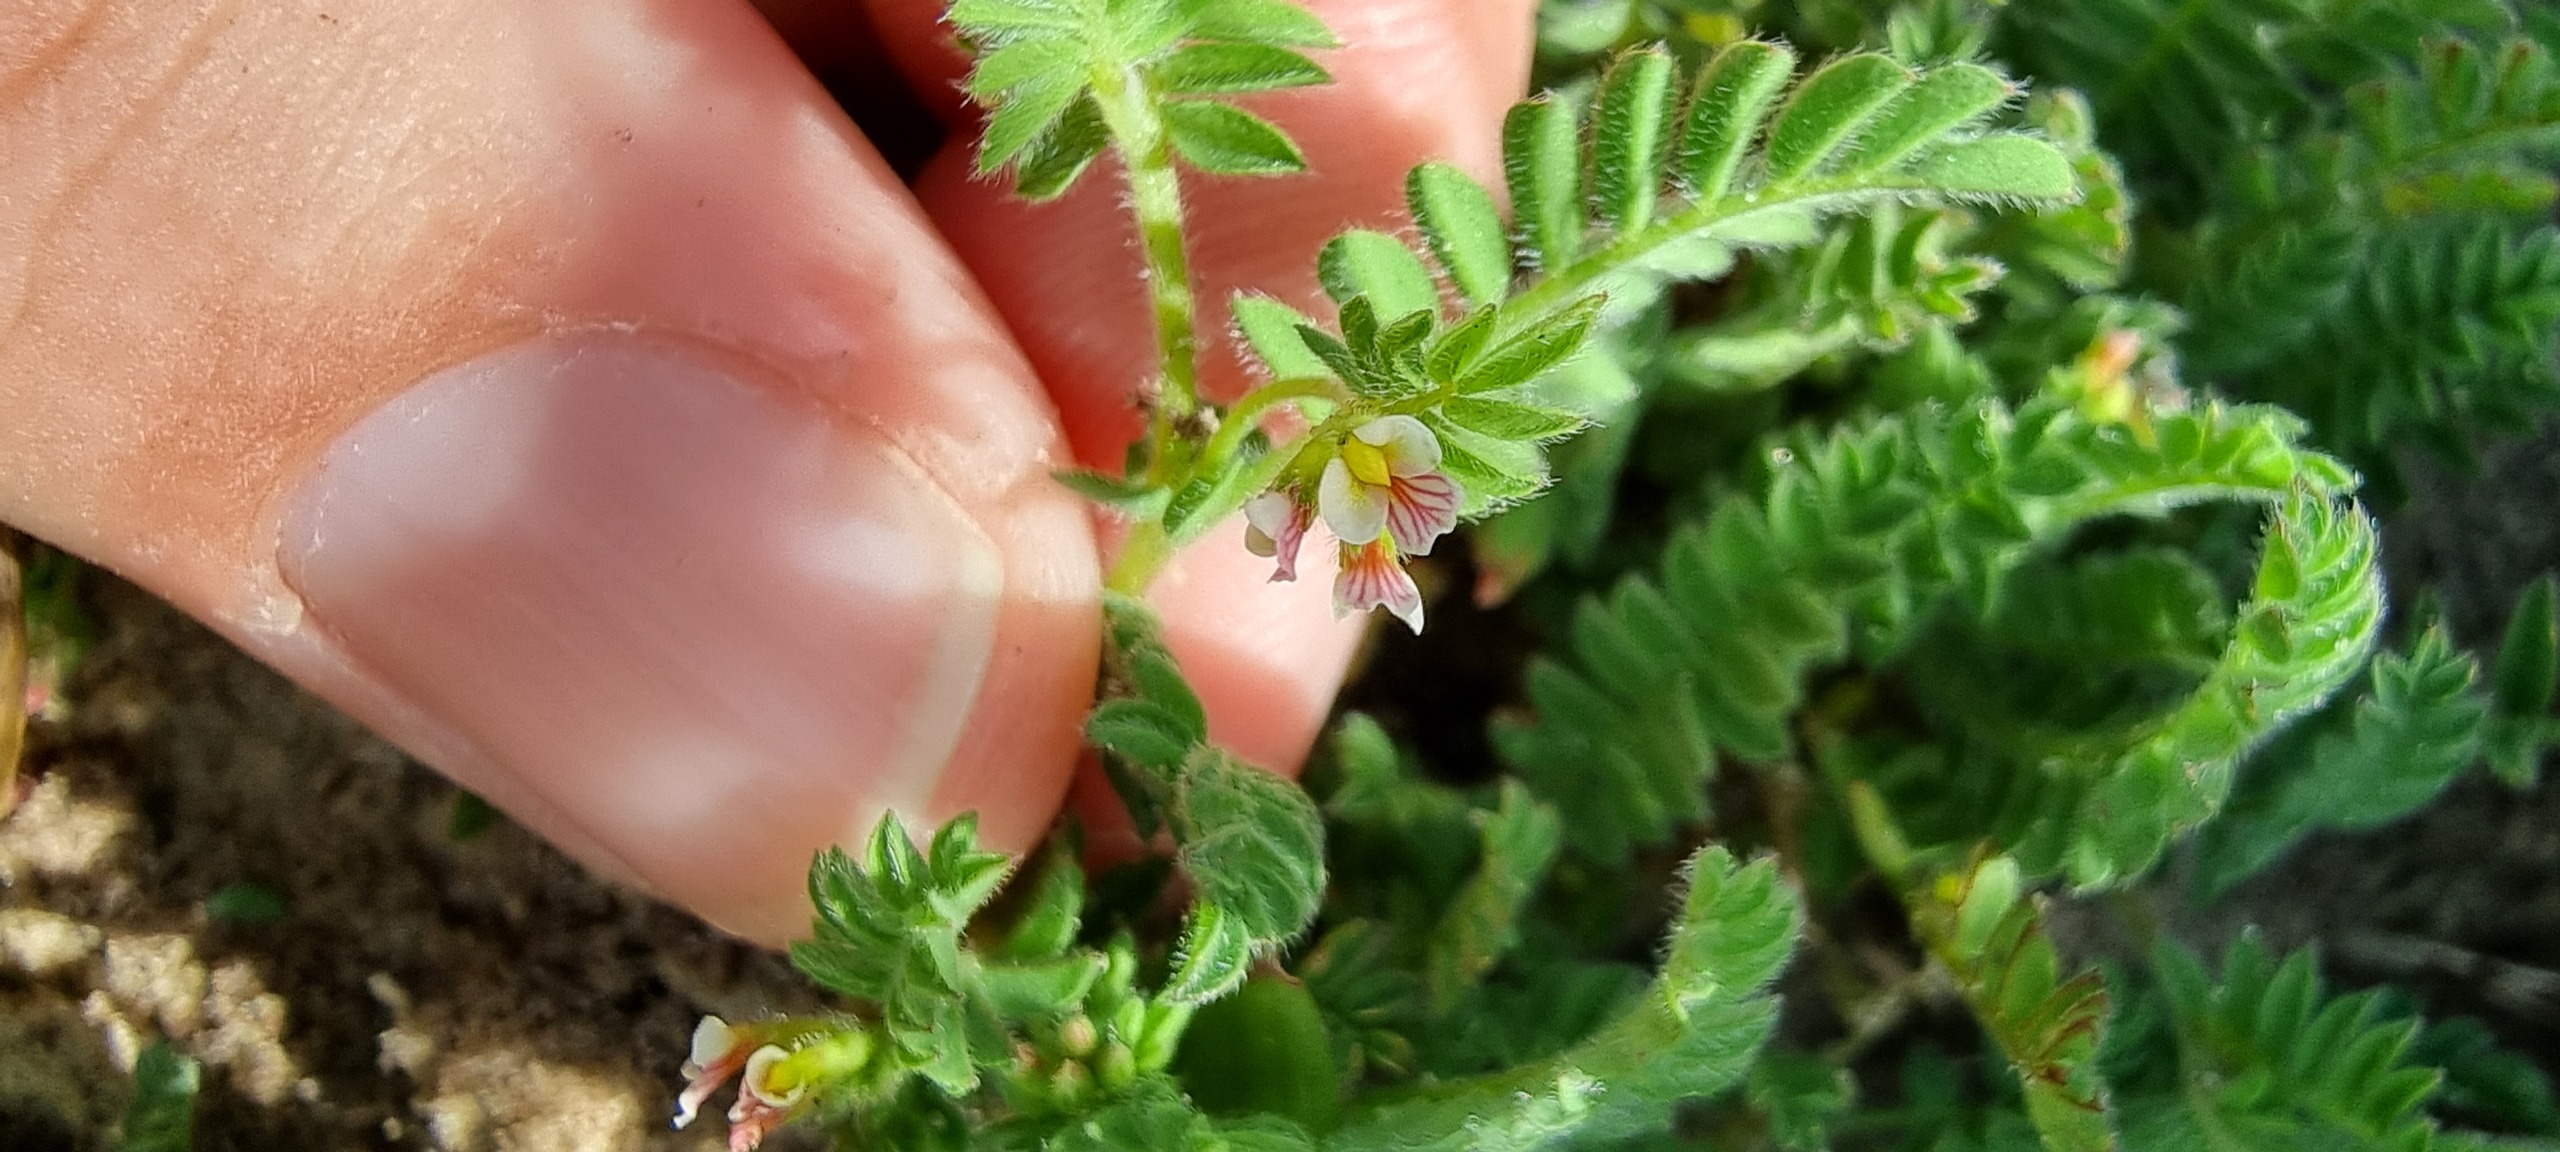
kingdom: Plantae
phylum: Tracheophyta
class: Magnoliopsida
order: Fabales
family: Fabaceae
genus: Ornithopus
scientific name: Ornithopus perpusillus
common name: Liden fugleklo
